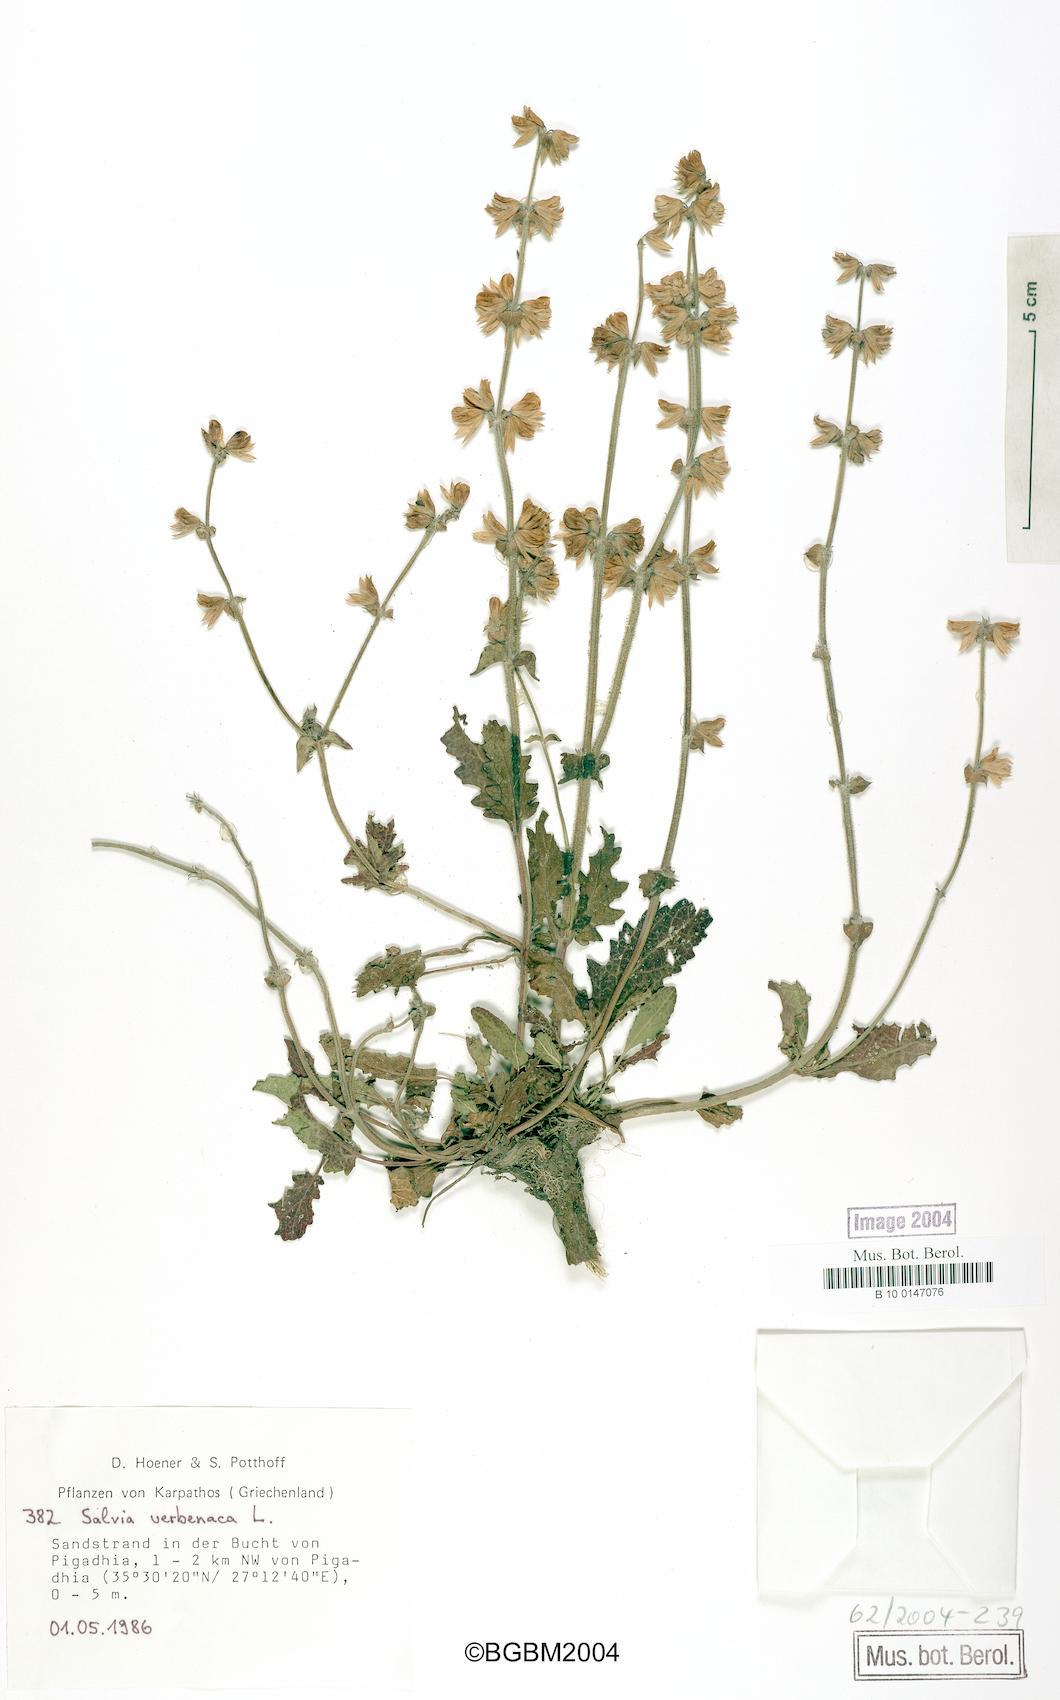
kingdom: Plantae
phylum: Tracheophyta
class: Magnoliopsida
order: Lamiales
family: Lamiaceae
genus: Salvia
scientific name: Salvia verbenaca
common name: Wild clary
